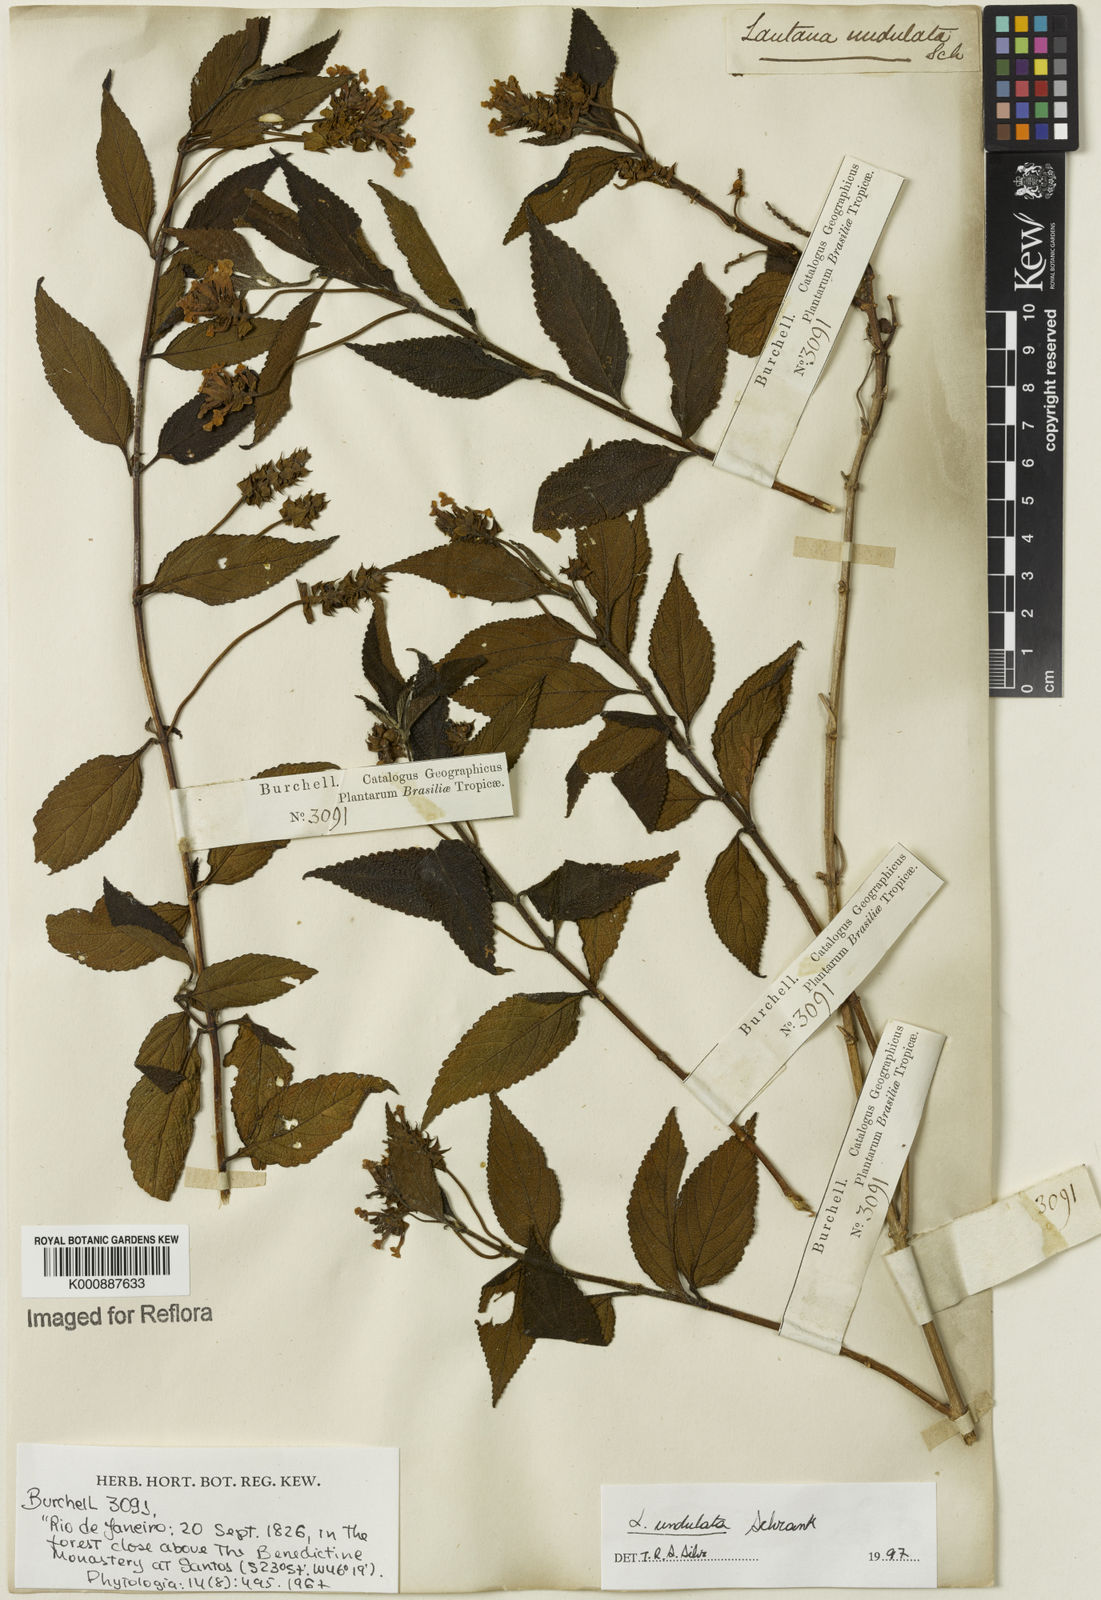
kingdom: Plantae
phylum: Tracheophyta
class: Magnoliopsida
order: Lamiales
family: Verbenaceae
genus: Lantana
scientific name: Lantana undulata
